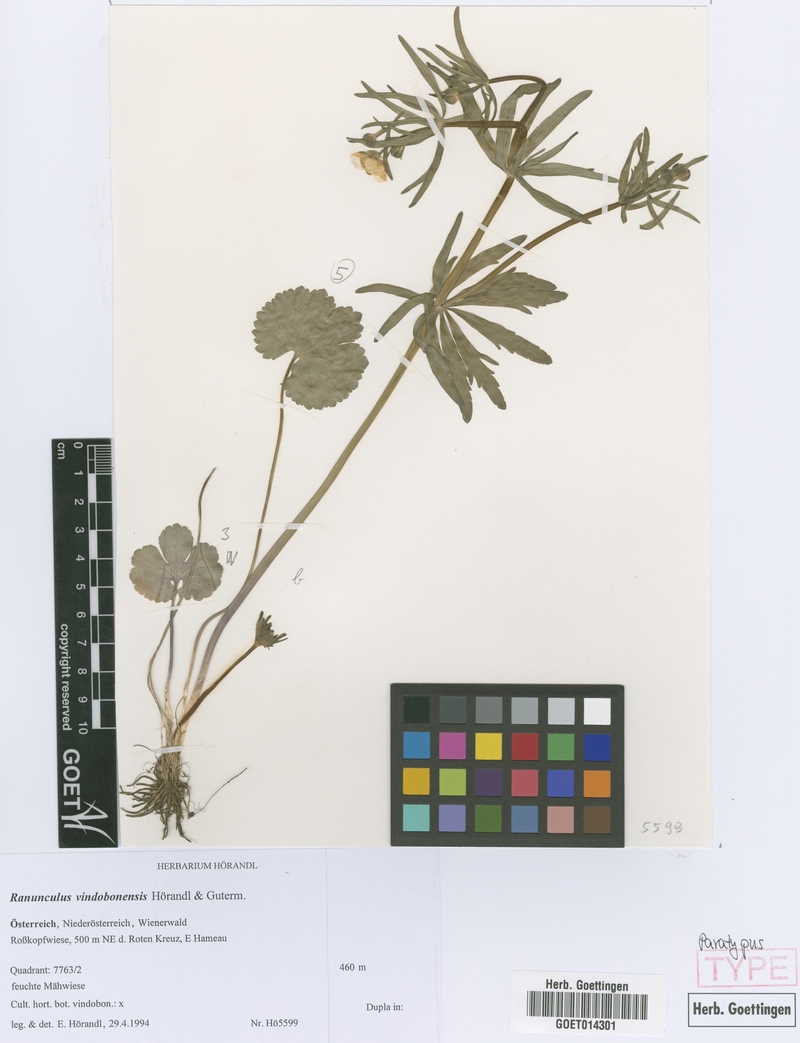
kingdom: Plantae
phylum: Tracheophyta
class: Magnoliopsida
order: Ranunculales
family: Ranunculaceae
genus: Ranunculus
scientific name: Ranunculus vindobonensis
